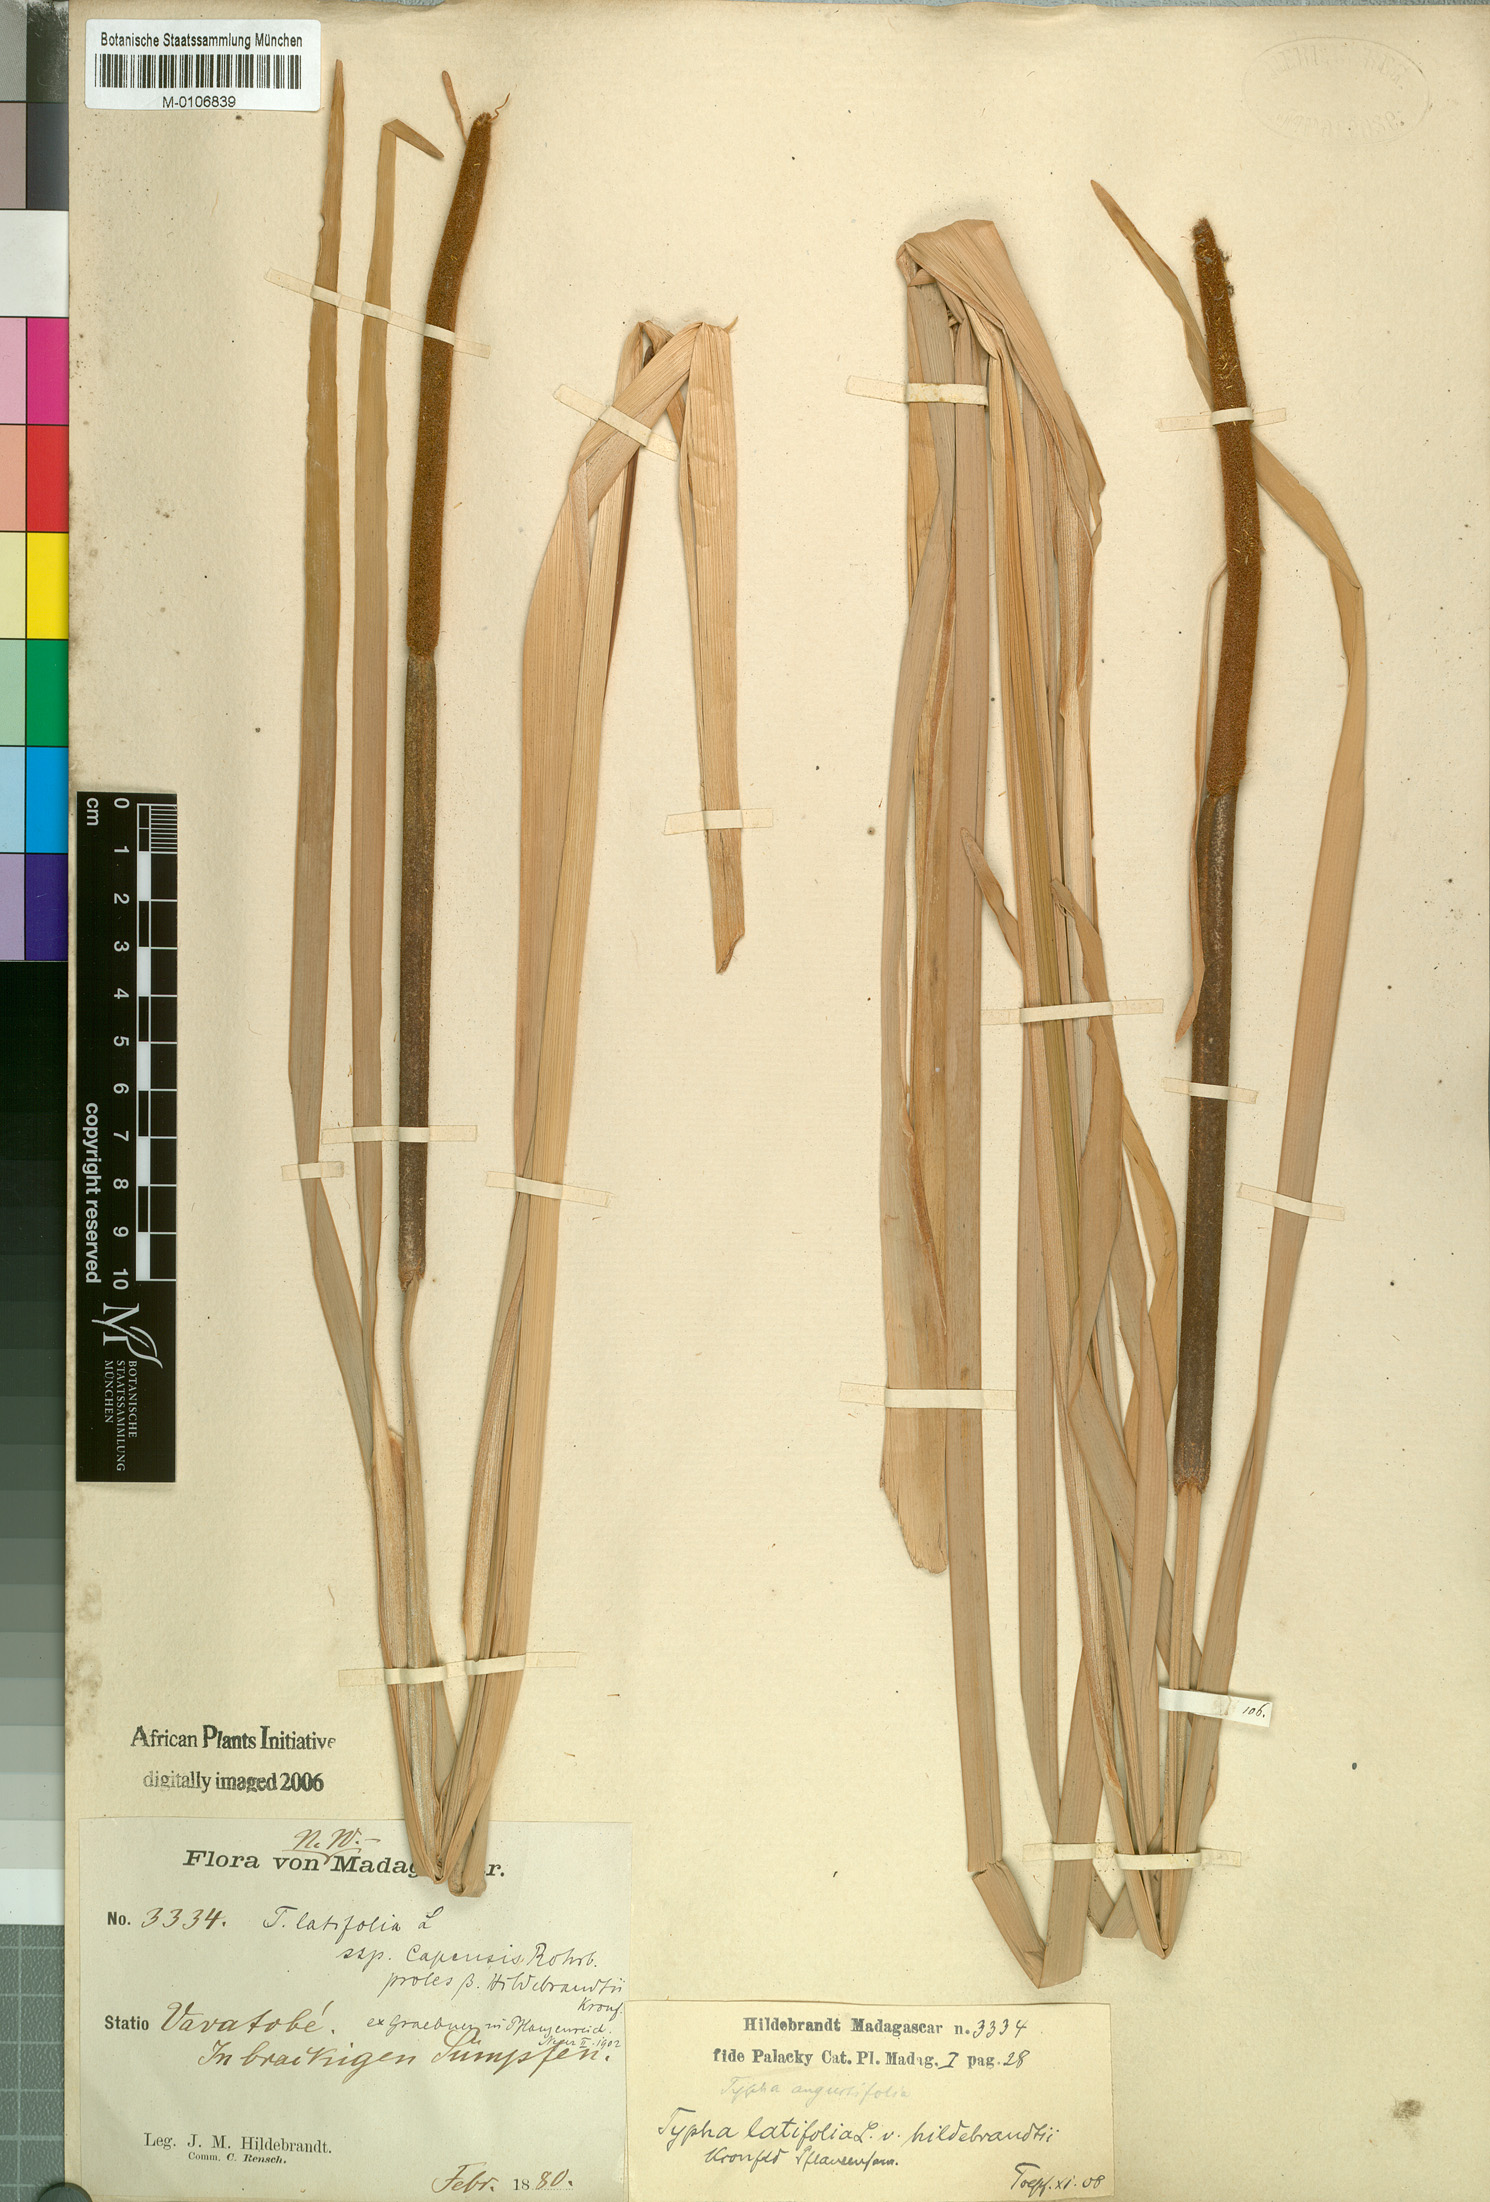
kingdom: Plantae
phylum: Tracheophyta
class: Liliopsida
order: Poales
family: Typhaceae
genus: Typha
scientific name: Typha latifolia
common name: Broadleaf cattail
